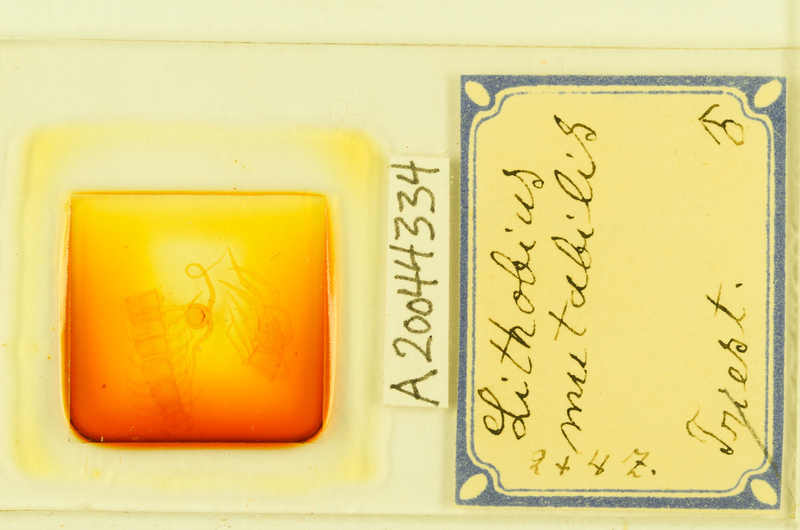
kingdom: Animalia
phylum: Arthropoda
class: Chilopoda
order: Lithobiomorpha
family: Lithobiidae
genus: Lithobius
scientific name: Lithobius mutabilis
